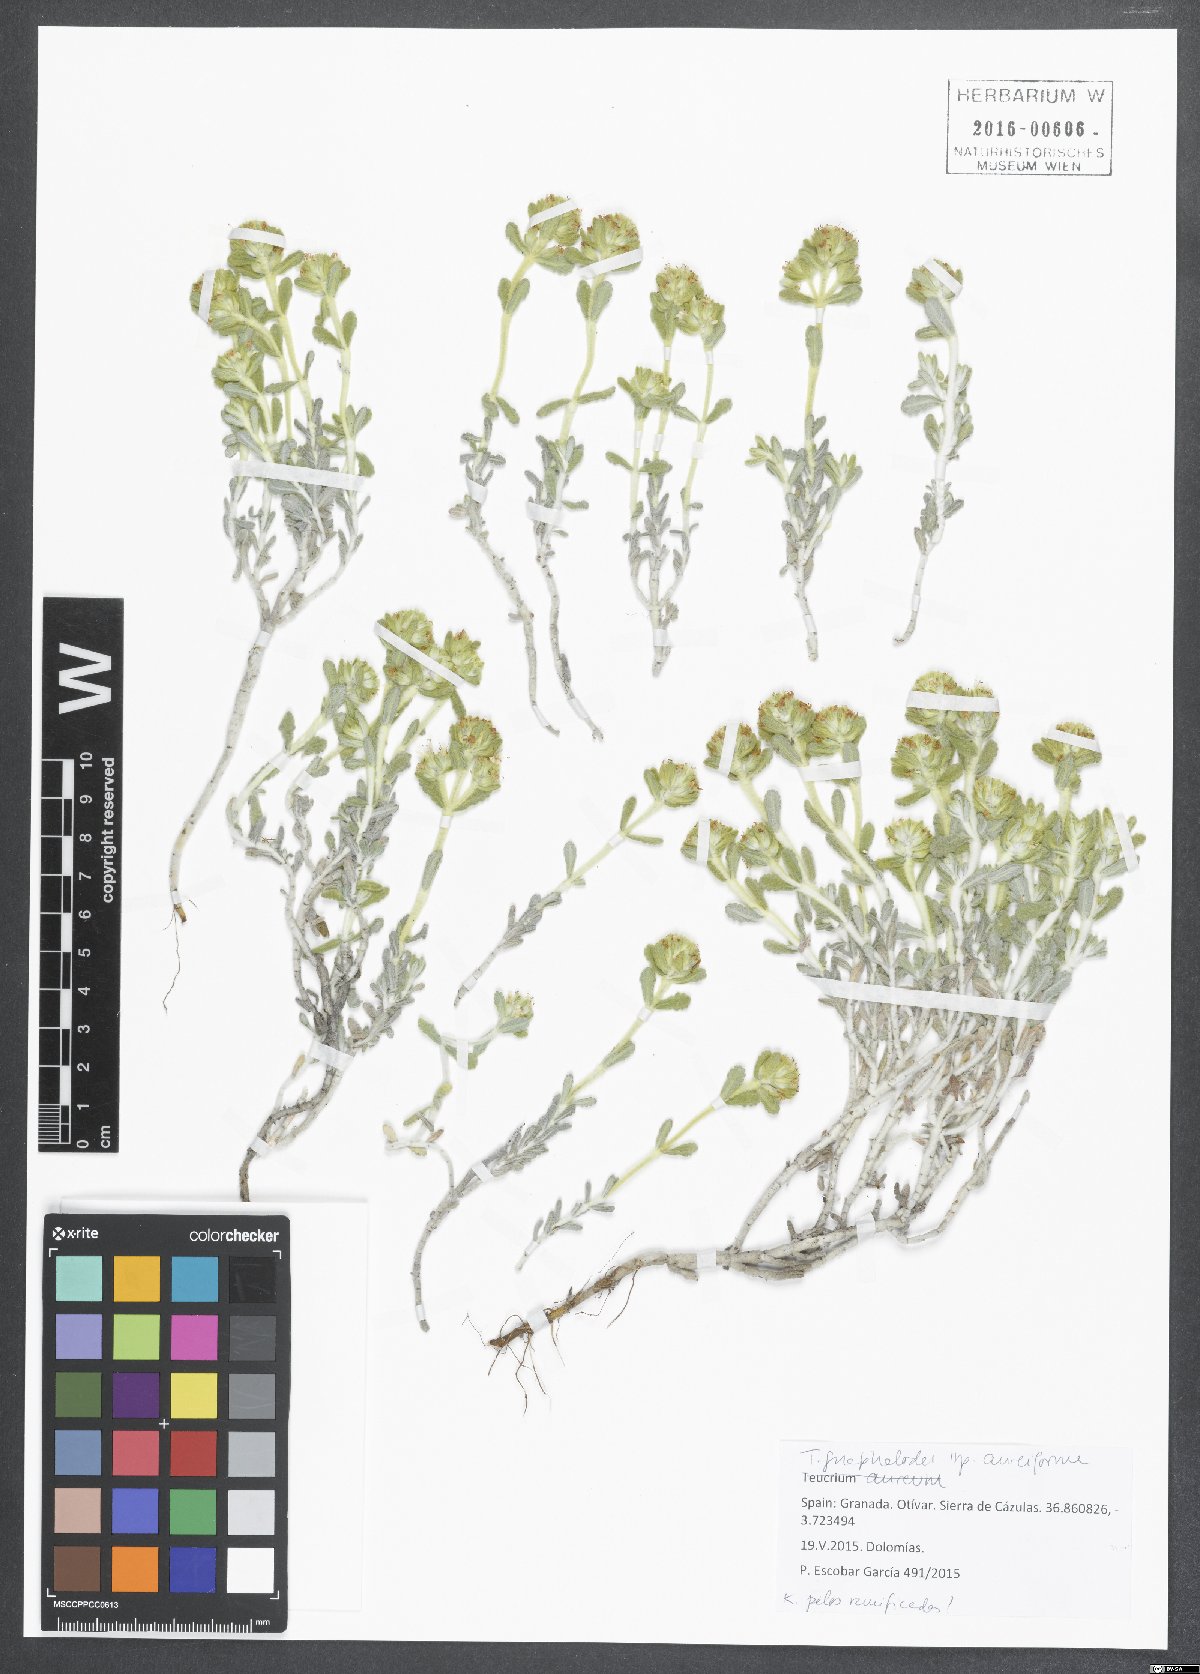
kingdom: Plantae
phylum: Tracheophyta
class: Magnoliopsida
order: Lamiales
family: Lamiaceae
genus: Teucrium
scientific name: Teucrium gnaphalodes
